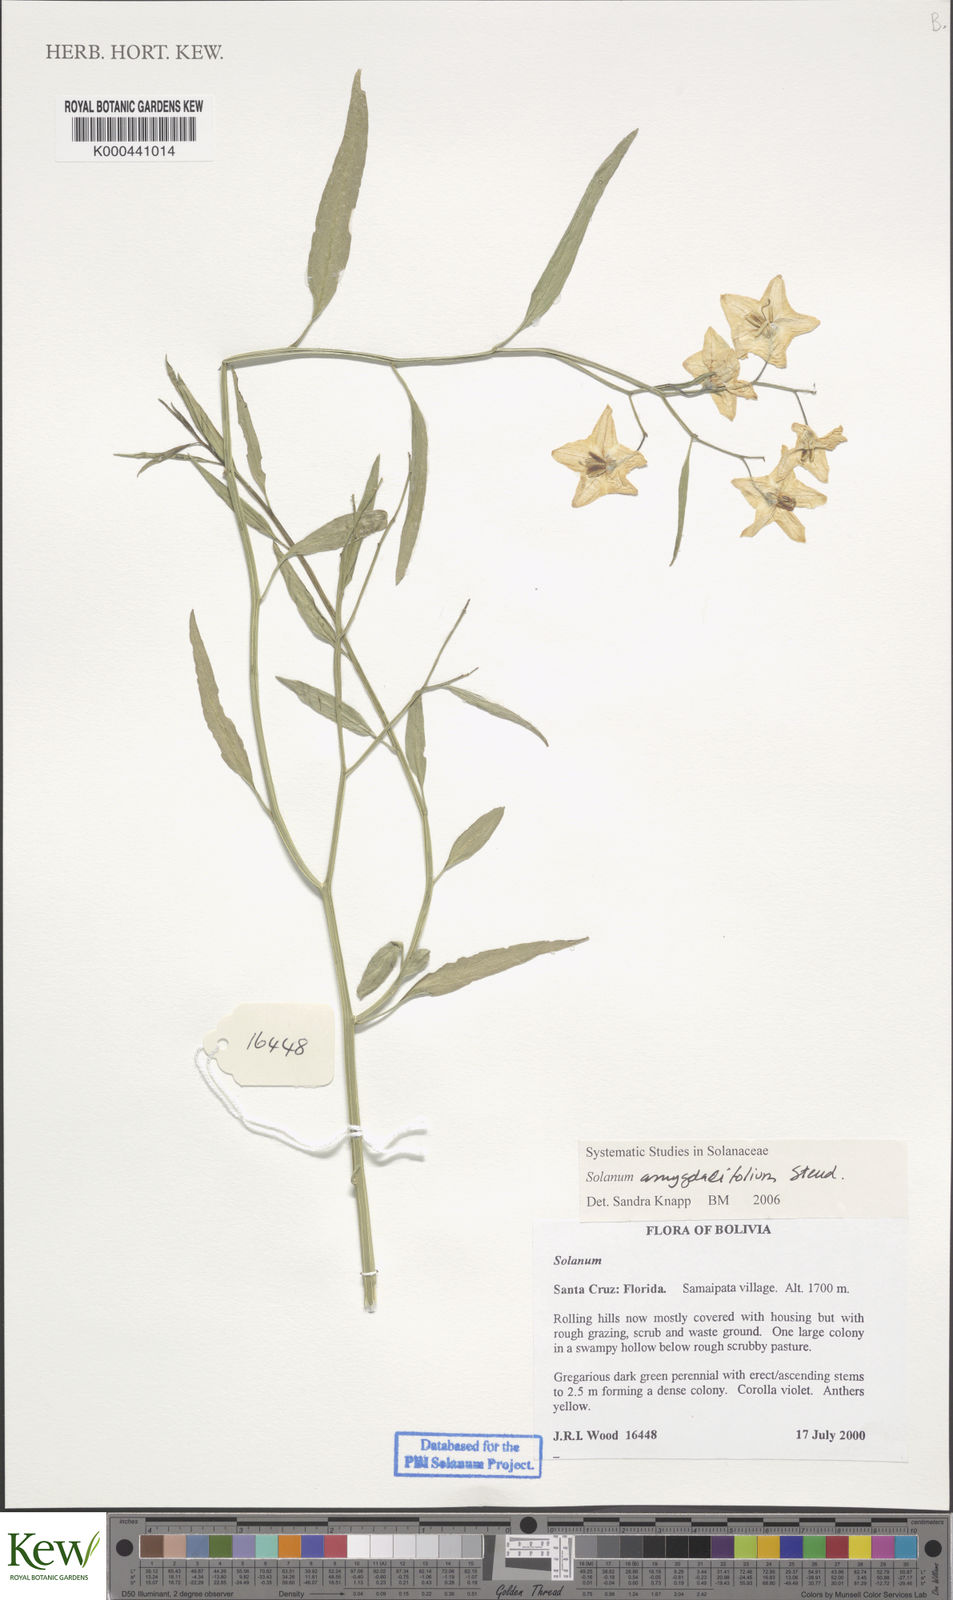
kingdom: Plantae
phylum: Tracheophyta
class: Magnoliopsida
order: Solanales
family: Solanaceae
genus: Solanum
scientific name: Solanum amygdalifolium
